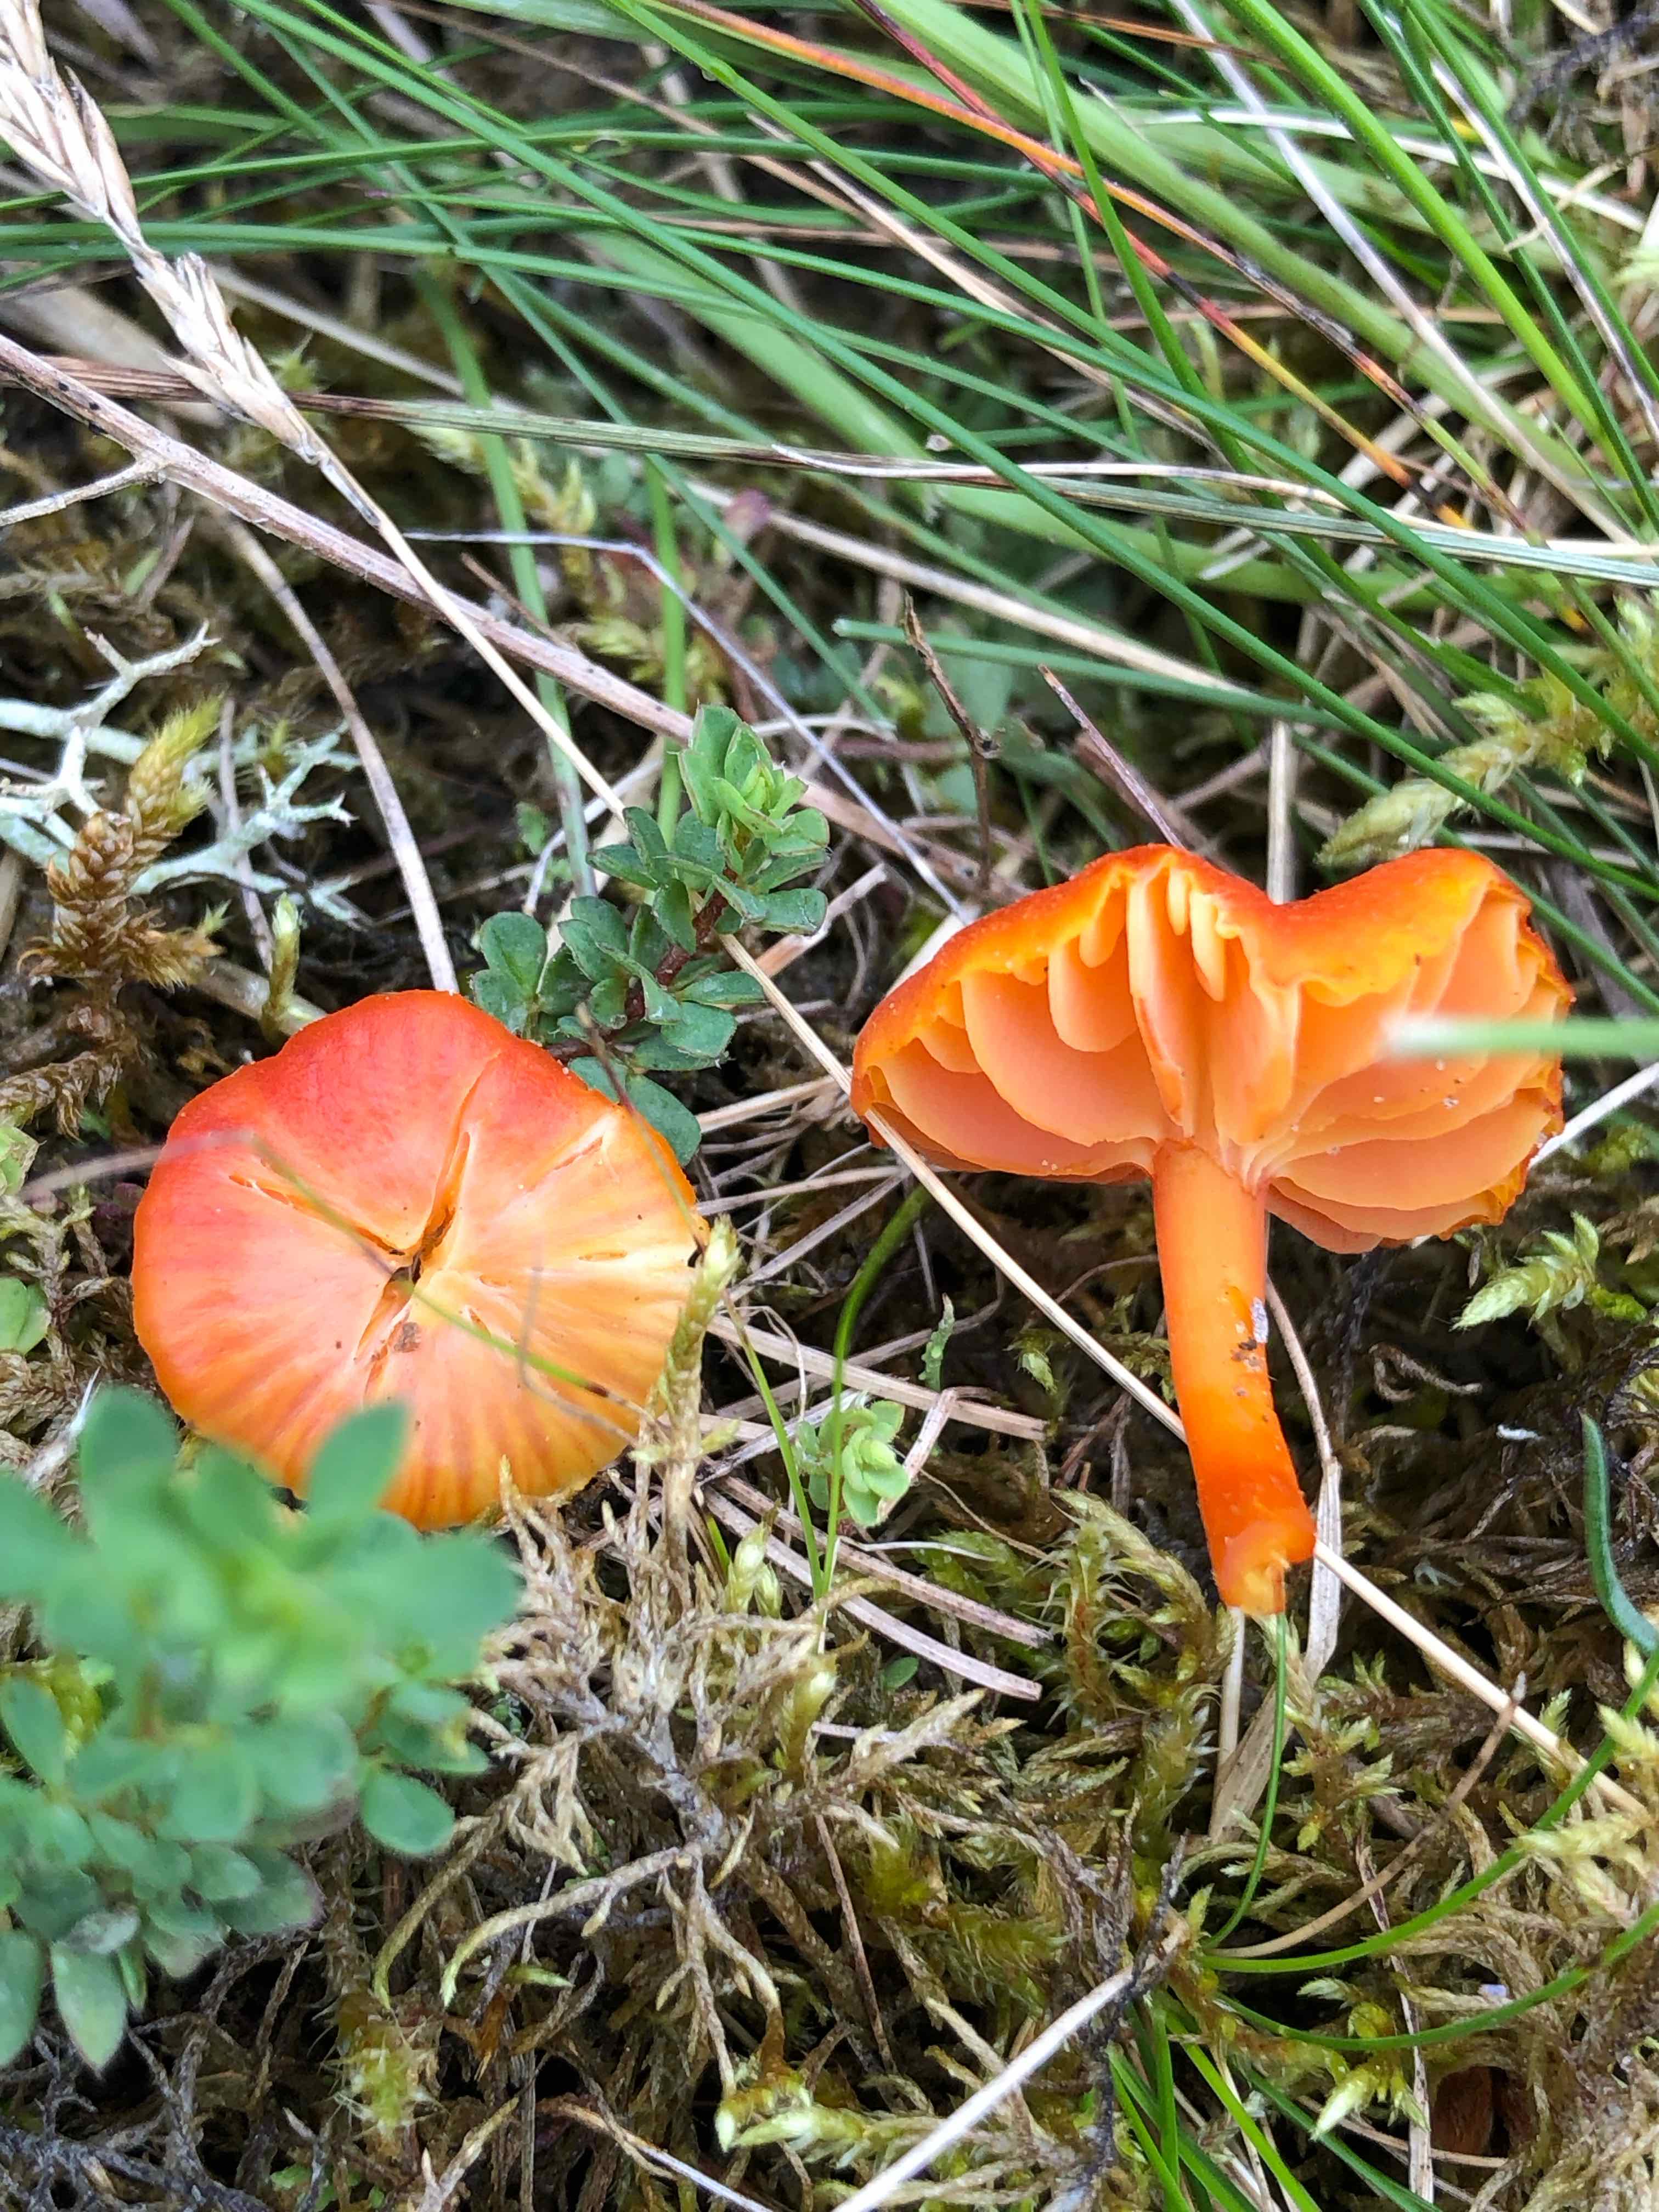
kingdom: Fungi
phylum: Basidiomycota
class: Agaricomycetes
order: Agaricales
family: Hygrophoraceae
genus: Hygrocybe
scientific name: Hygrocybe
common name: vokshat
